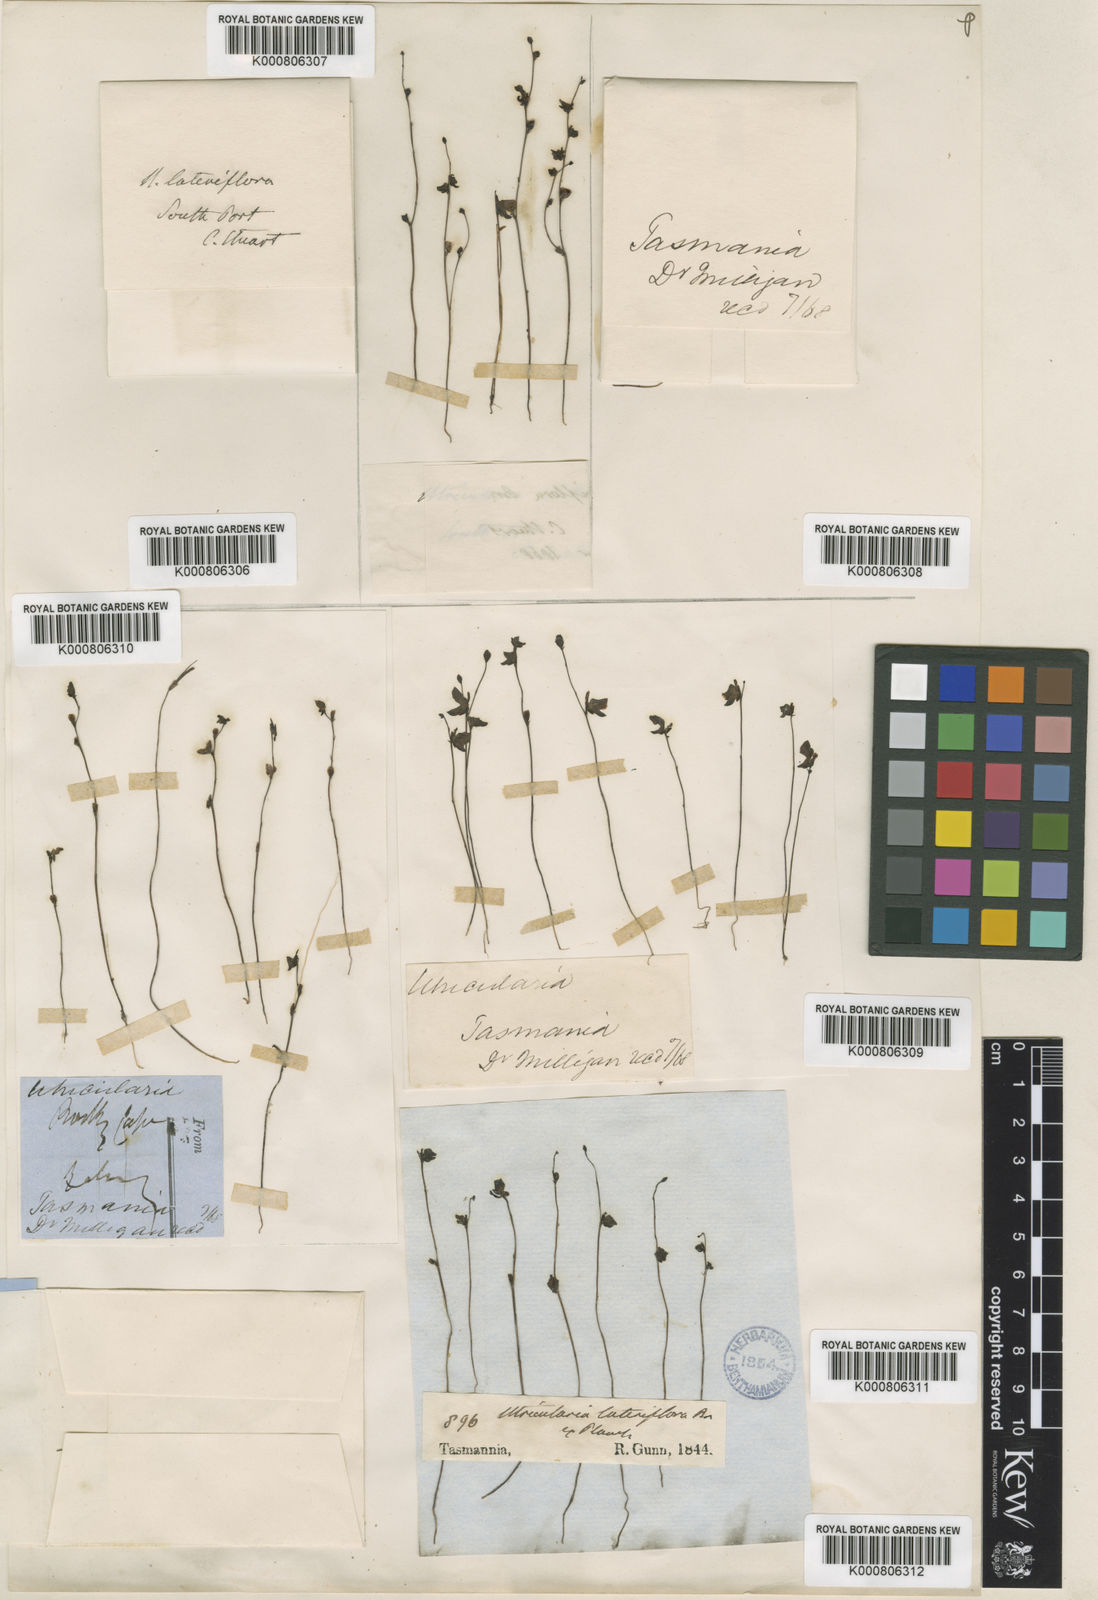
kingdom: Plantae
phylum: Tracheophyta
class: Magnoliopsida
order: Lamiales
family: Lentibulariaceae
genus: Utricularia
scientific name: Utricularia lateriflora
